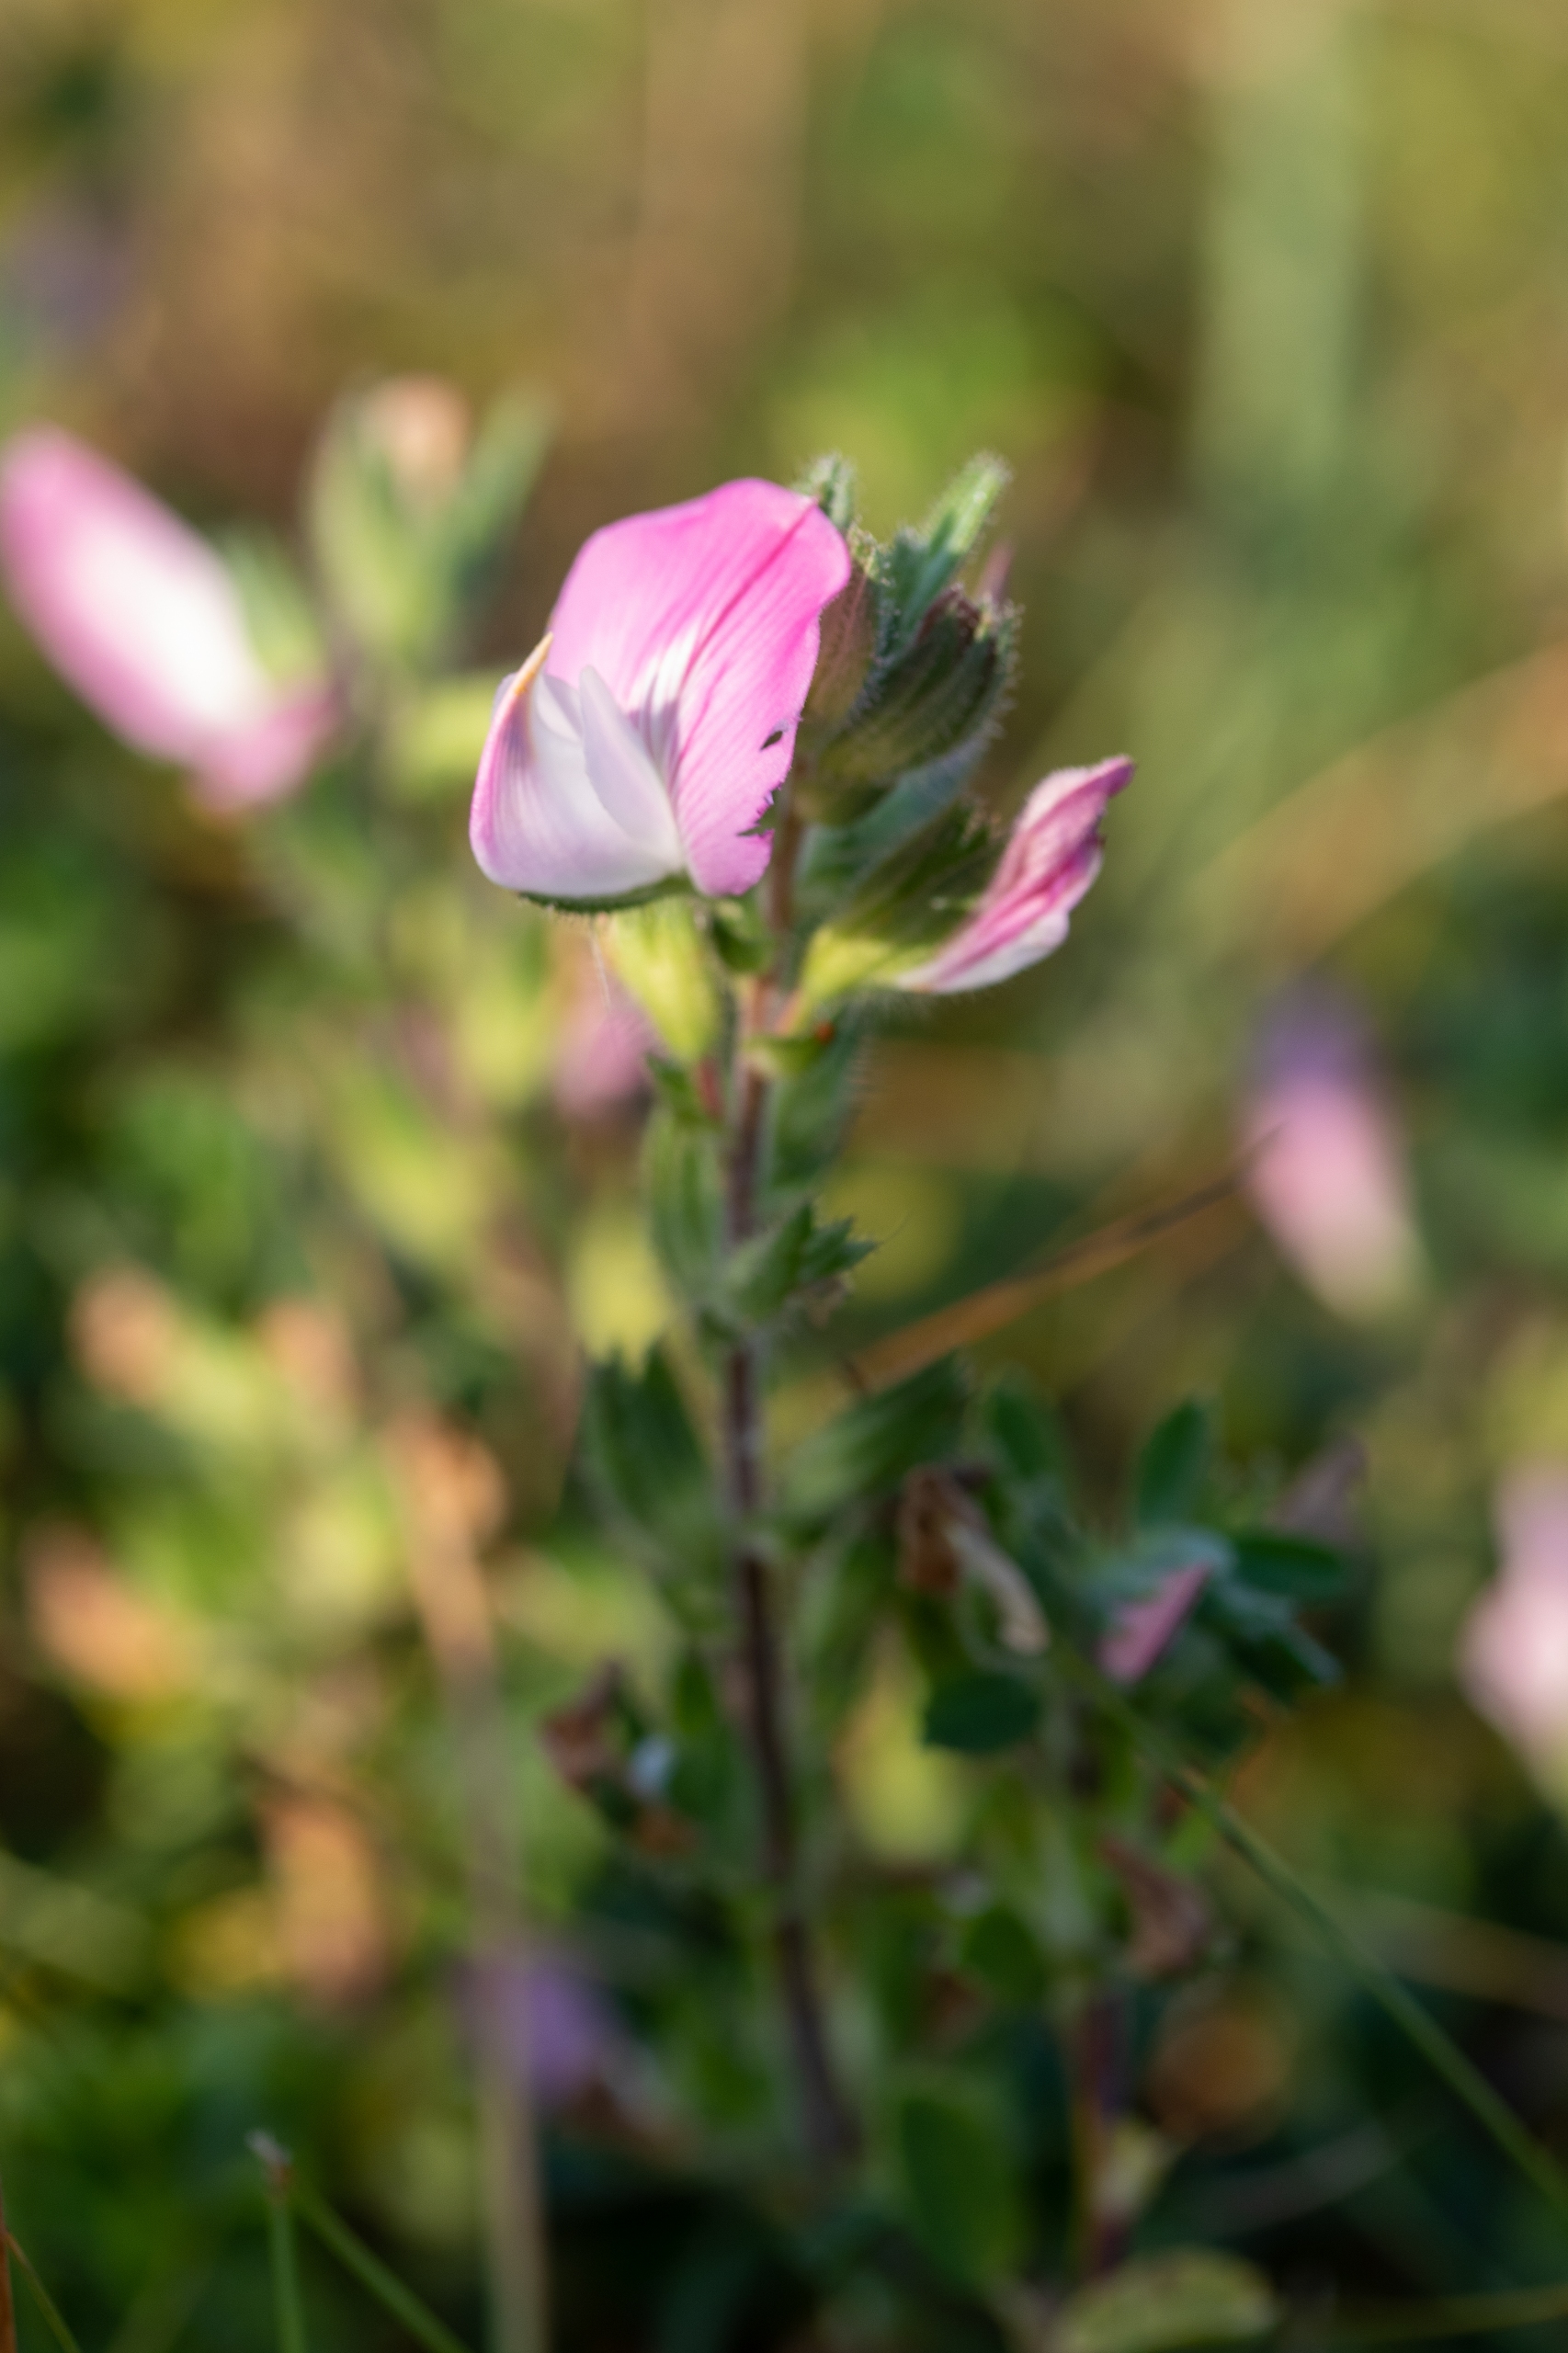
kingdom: Plantae
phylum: Tracheophyta
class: Magnoliopsida
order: Fabales
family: Fabaceae
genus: Ononis
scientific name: Ononis
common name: Kragekloslægten
